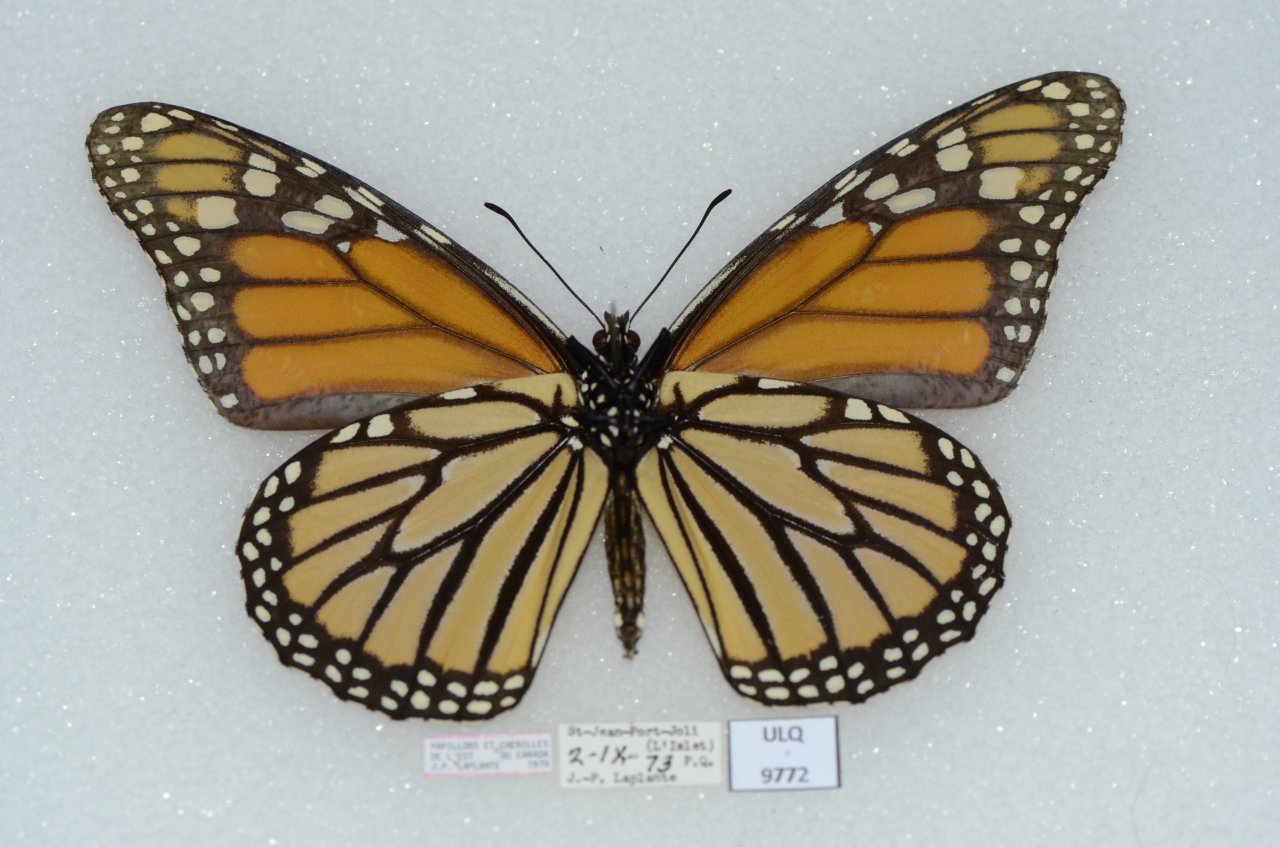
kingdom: Animalia
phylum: Arthropoda
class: Insecta
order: Lepidoptera
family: Nymphalidae
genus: Danaus
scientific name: Danaus plexippus
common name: Monarch
